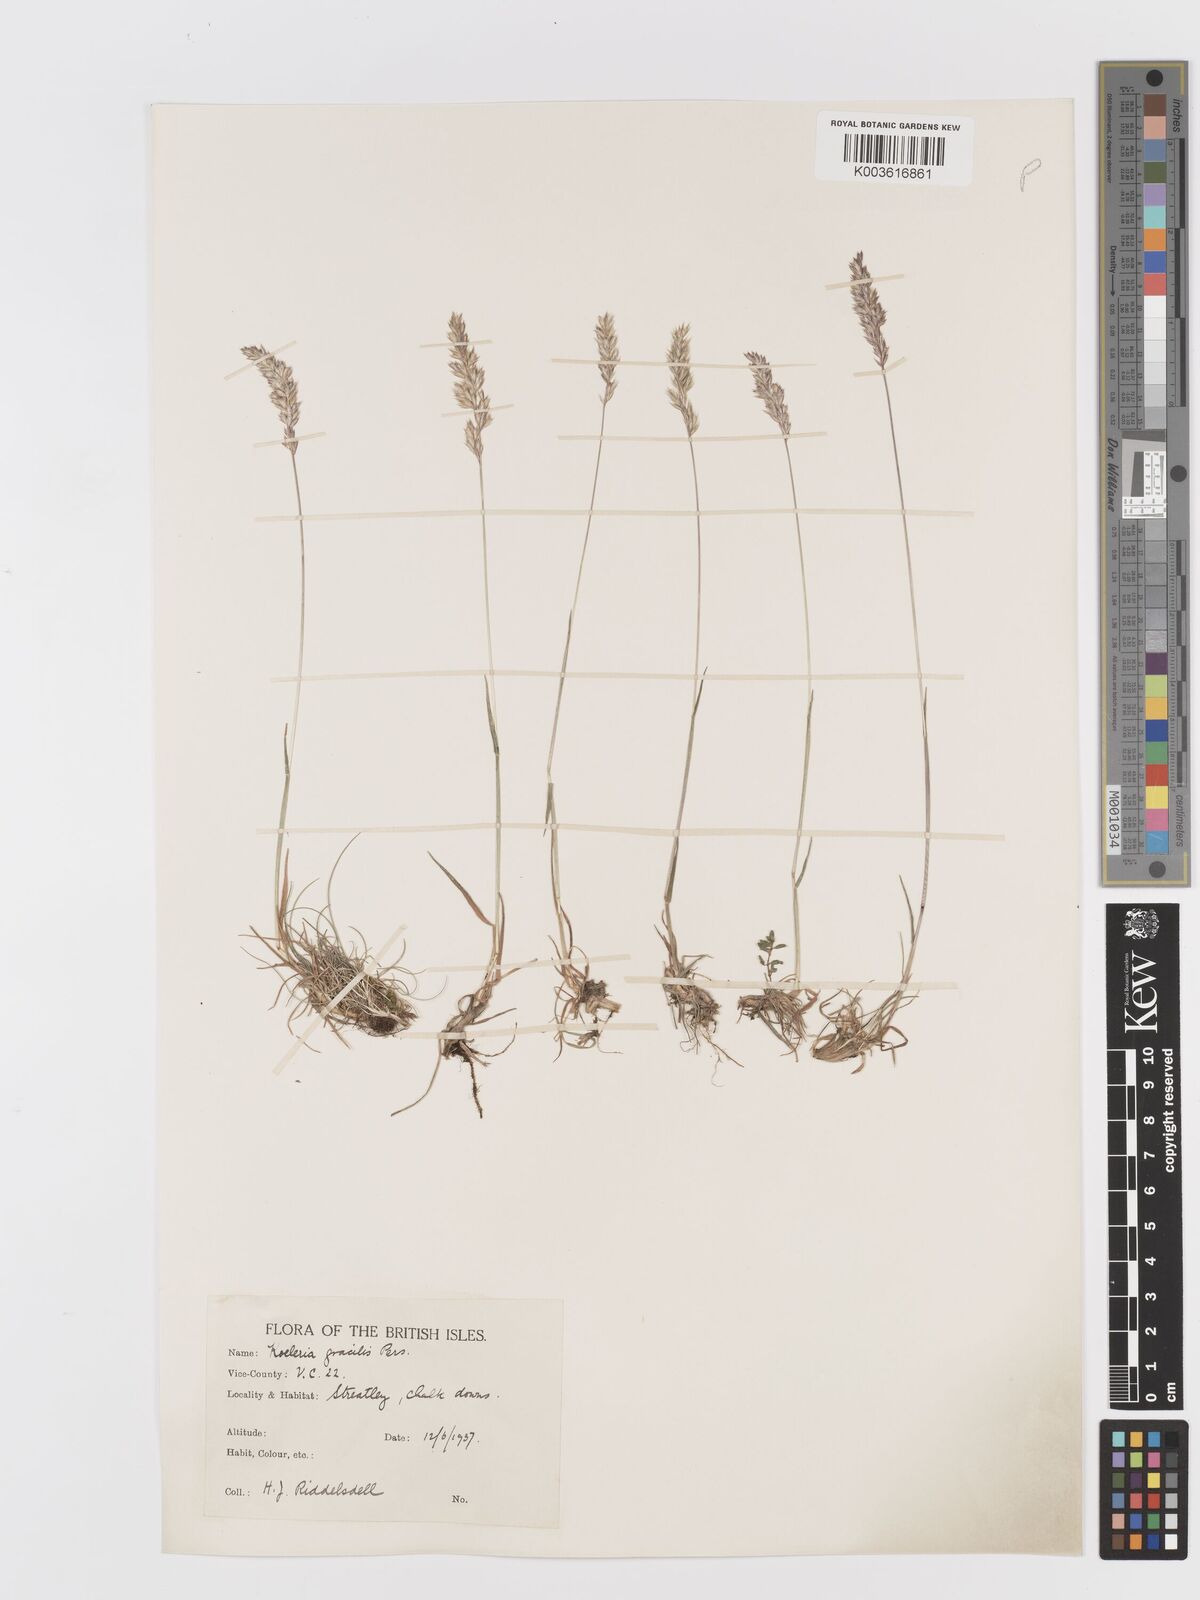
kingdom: Plantae
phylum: Tracheophyta
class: Liliopsida
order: Poales
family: Poaceae
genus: Koeleria
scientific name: Koeleria macrantha
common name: Crested hair-grass
